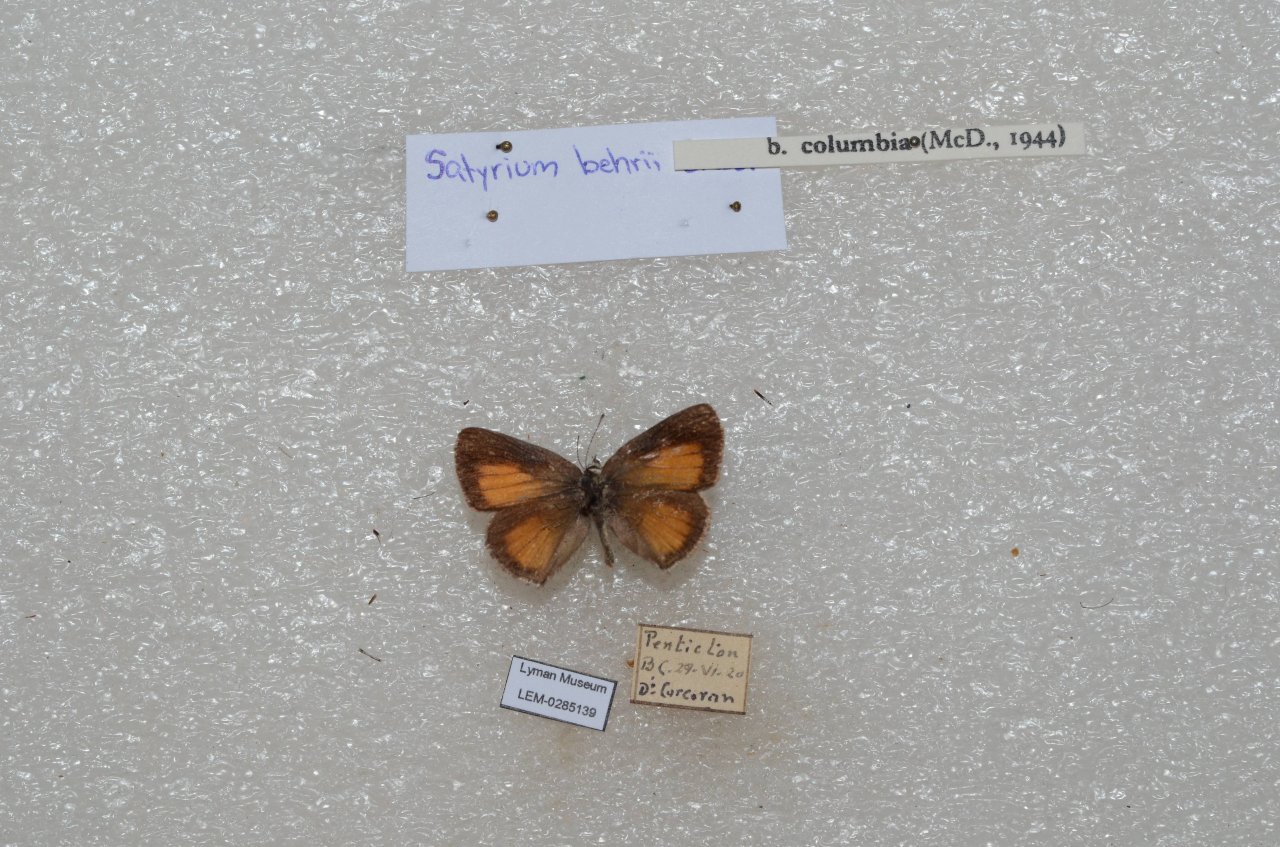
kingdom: Animalia
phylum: Arthropoda
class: Insecta
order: Lepidoptera
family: Lycaenidae
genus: Satyrium
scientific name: Satyrium behrii
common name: Behr's Hairstreak
